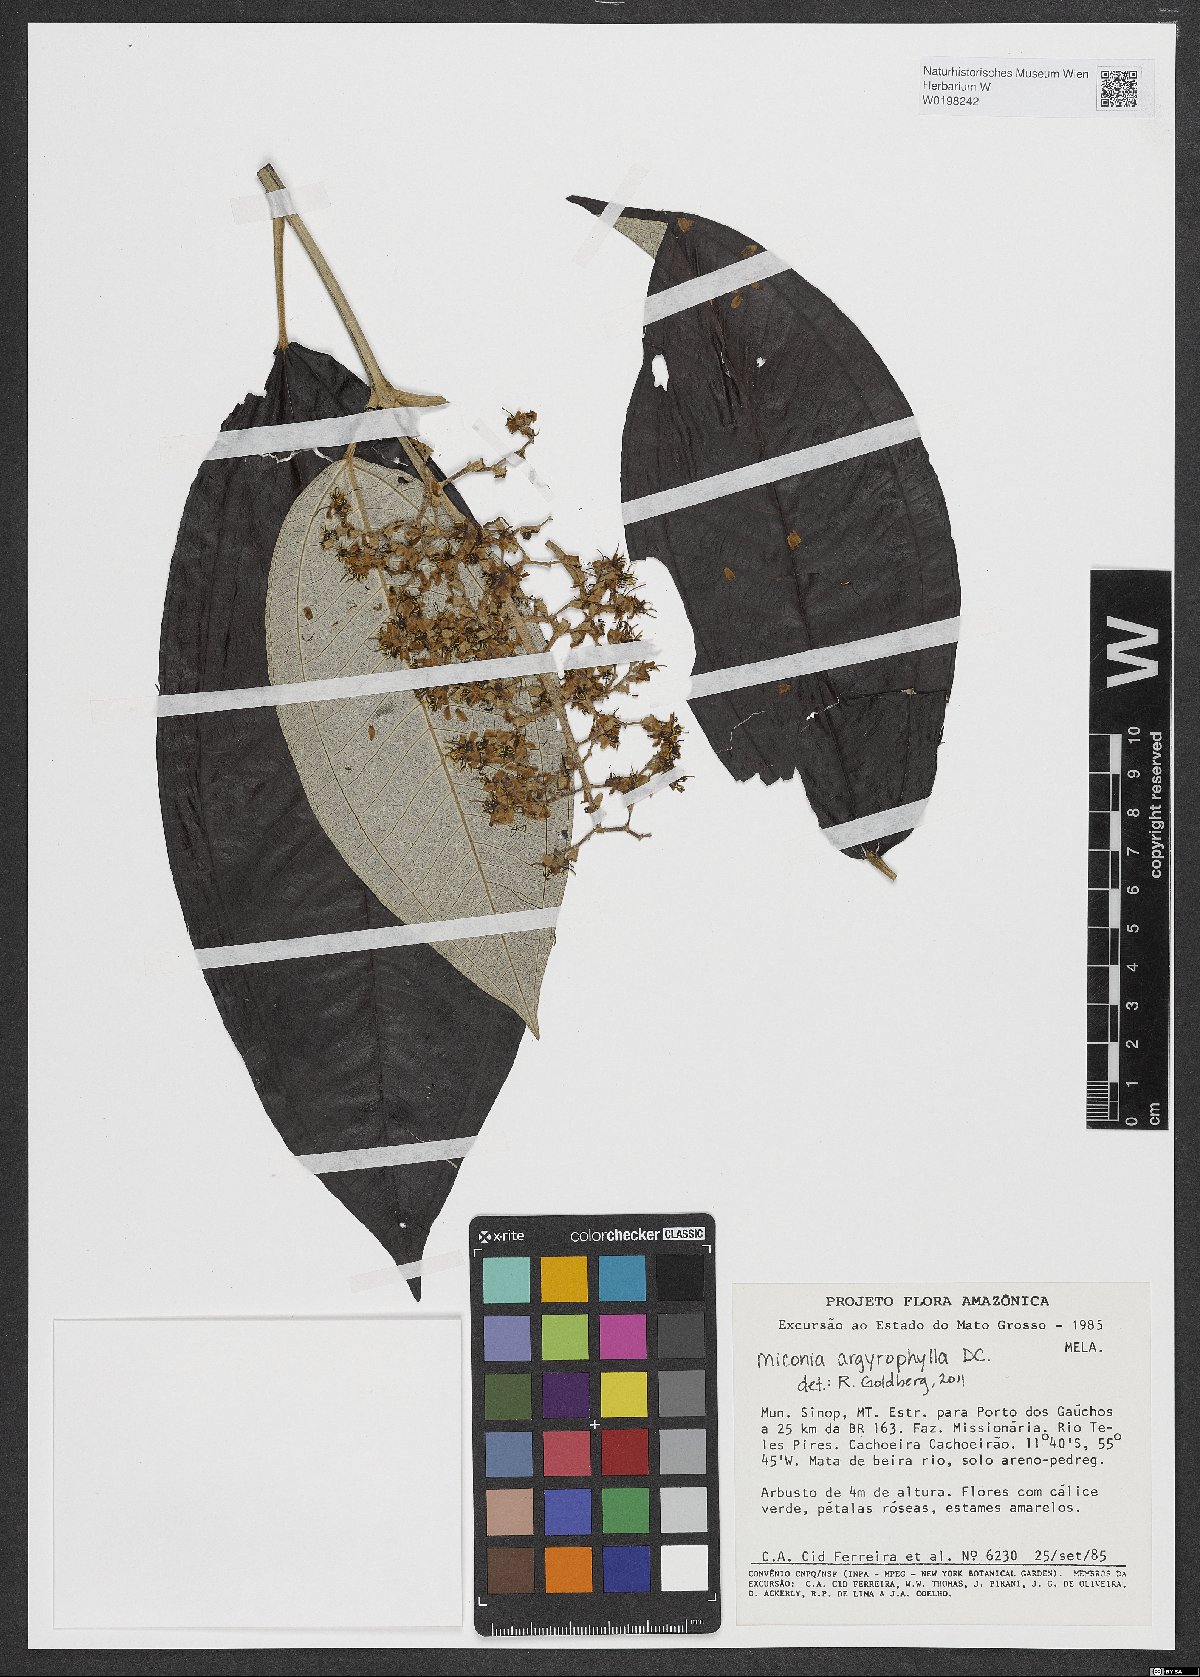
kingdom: Plantae
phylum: Tracheophyta
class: Magnoliopsida
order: Myrtales
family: Melastomataceae
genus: Miconia
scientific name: Miconia argyrophylla
